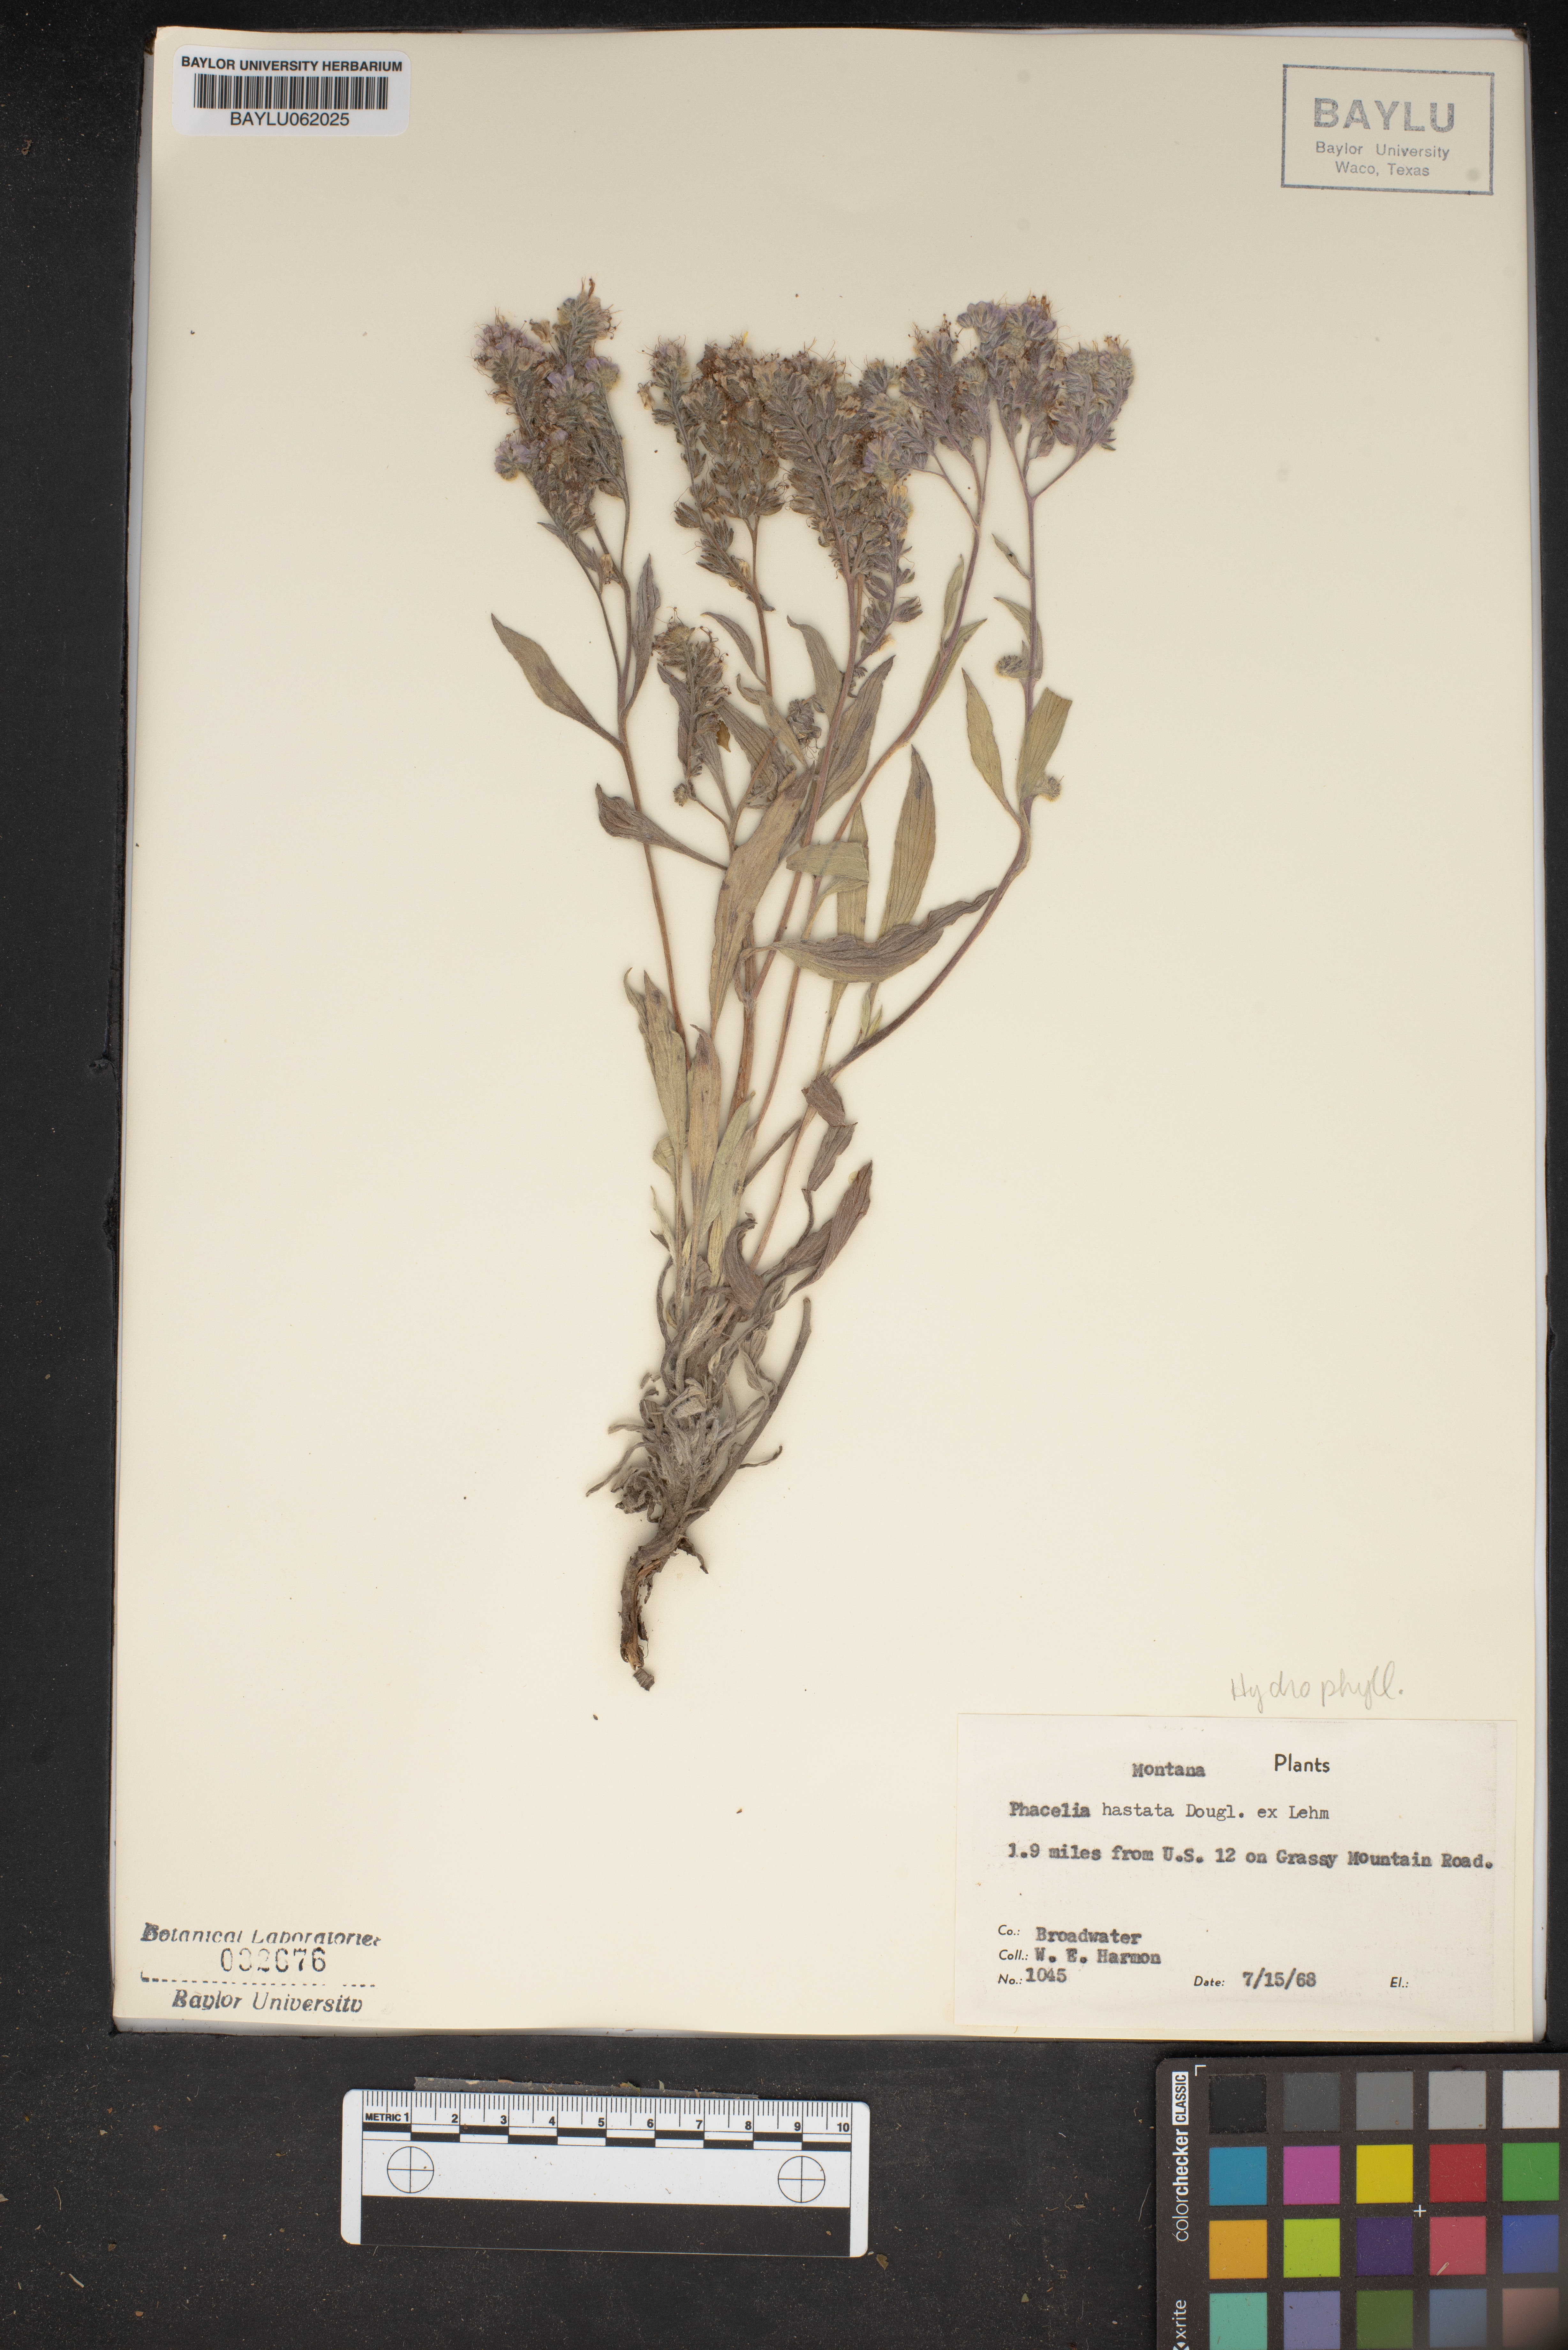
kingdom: Plantae
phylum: Tracheophyta
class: Magnoliopsida
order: Boraginales
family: Hydrophyllaceae
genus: Phacelia
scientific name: Phacelia hastata
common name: Silver-leaved phacelia
